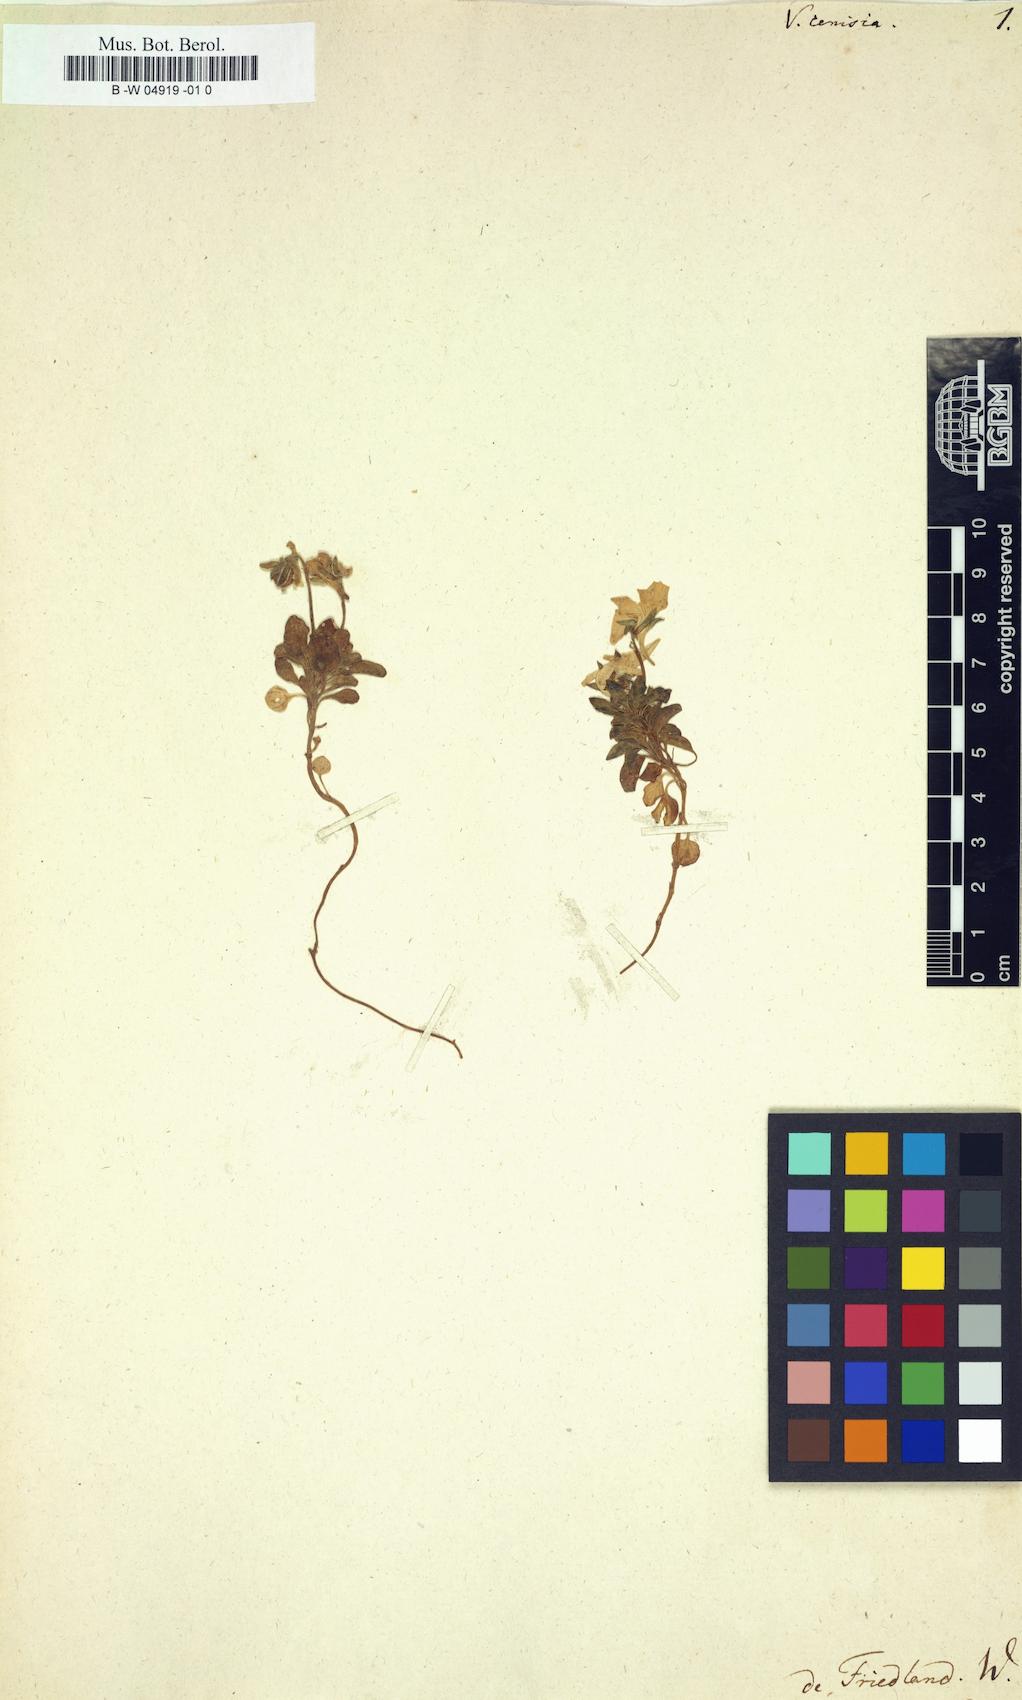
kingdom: Plantae
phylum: Tracheophyta
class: Magnoliopsida
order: Malpighiales
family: Violaceae
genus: Viola
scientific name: Viola cenisia
